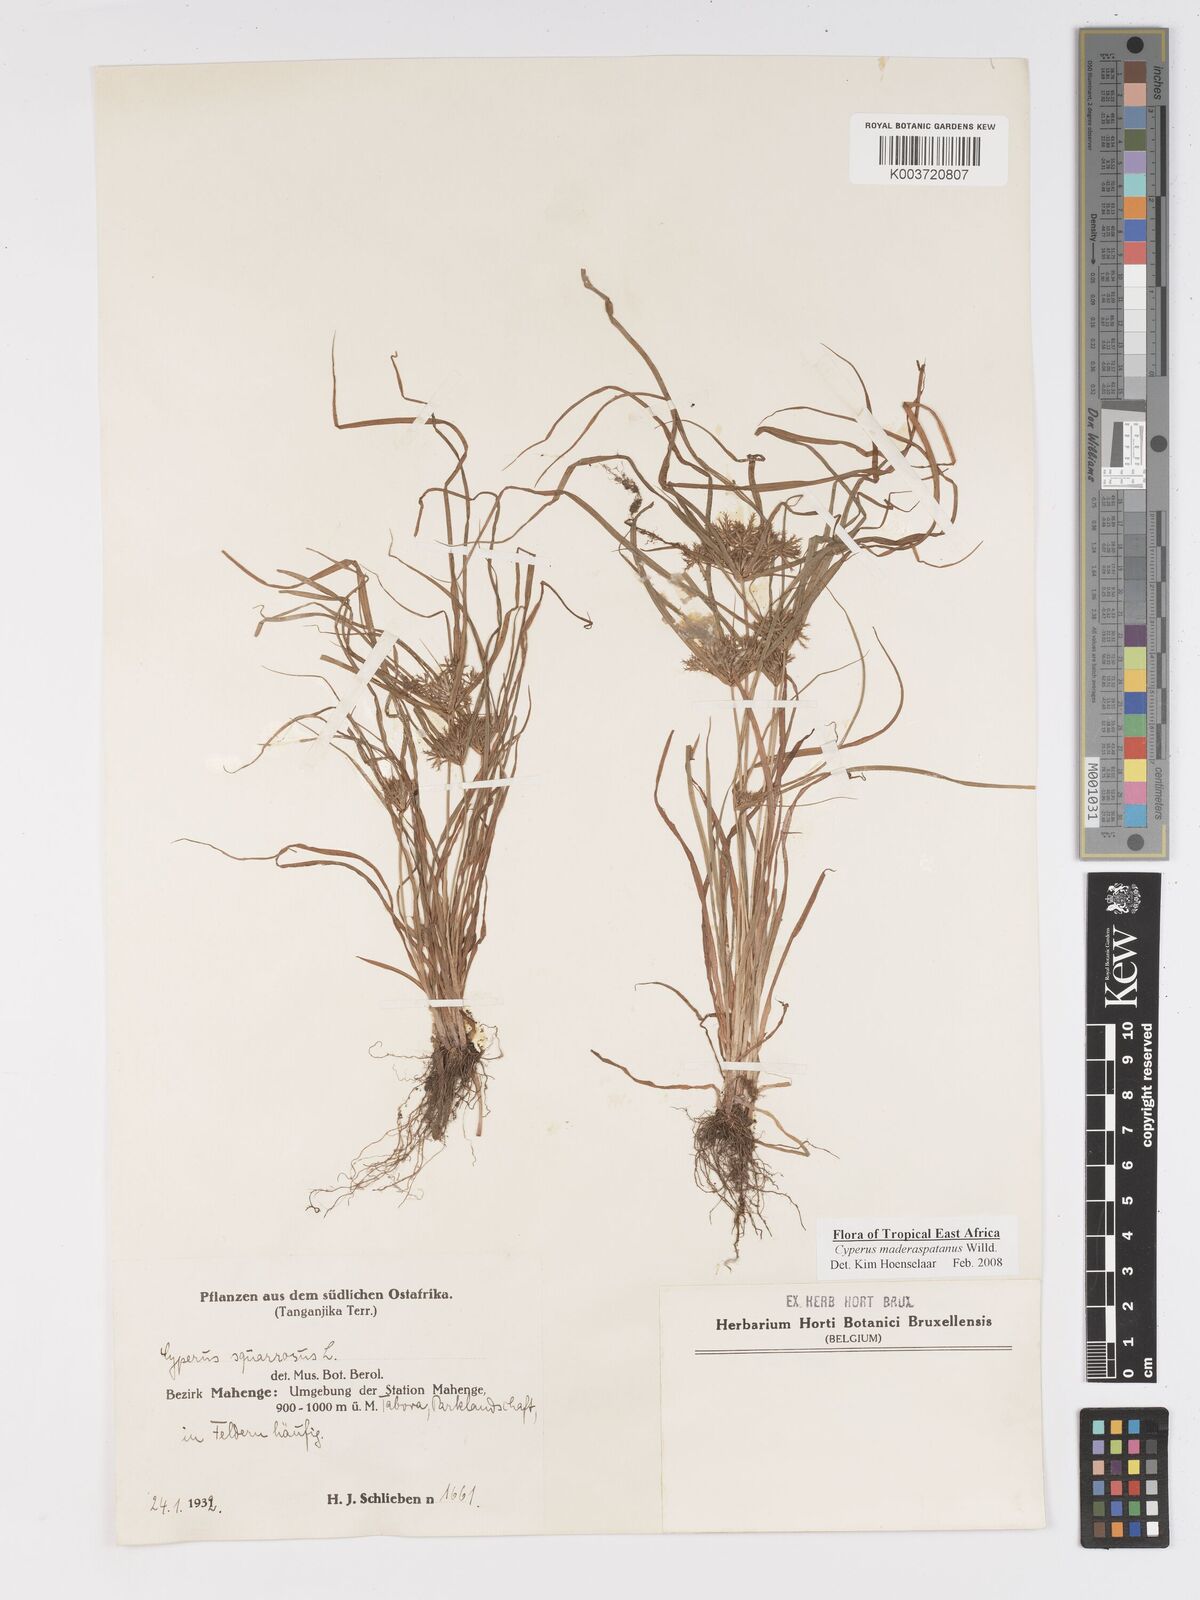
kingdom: Plantae
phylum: Tracheophyta
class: Liliopsida
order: Poales
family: Cyperaceae
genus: Cyperus
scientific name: Cyperus maderaspatanus
